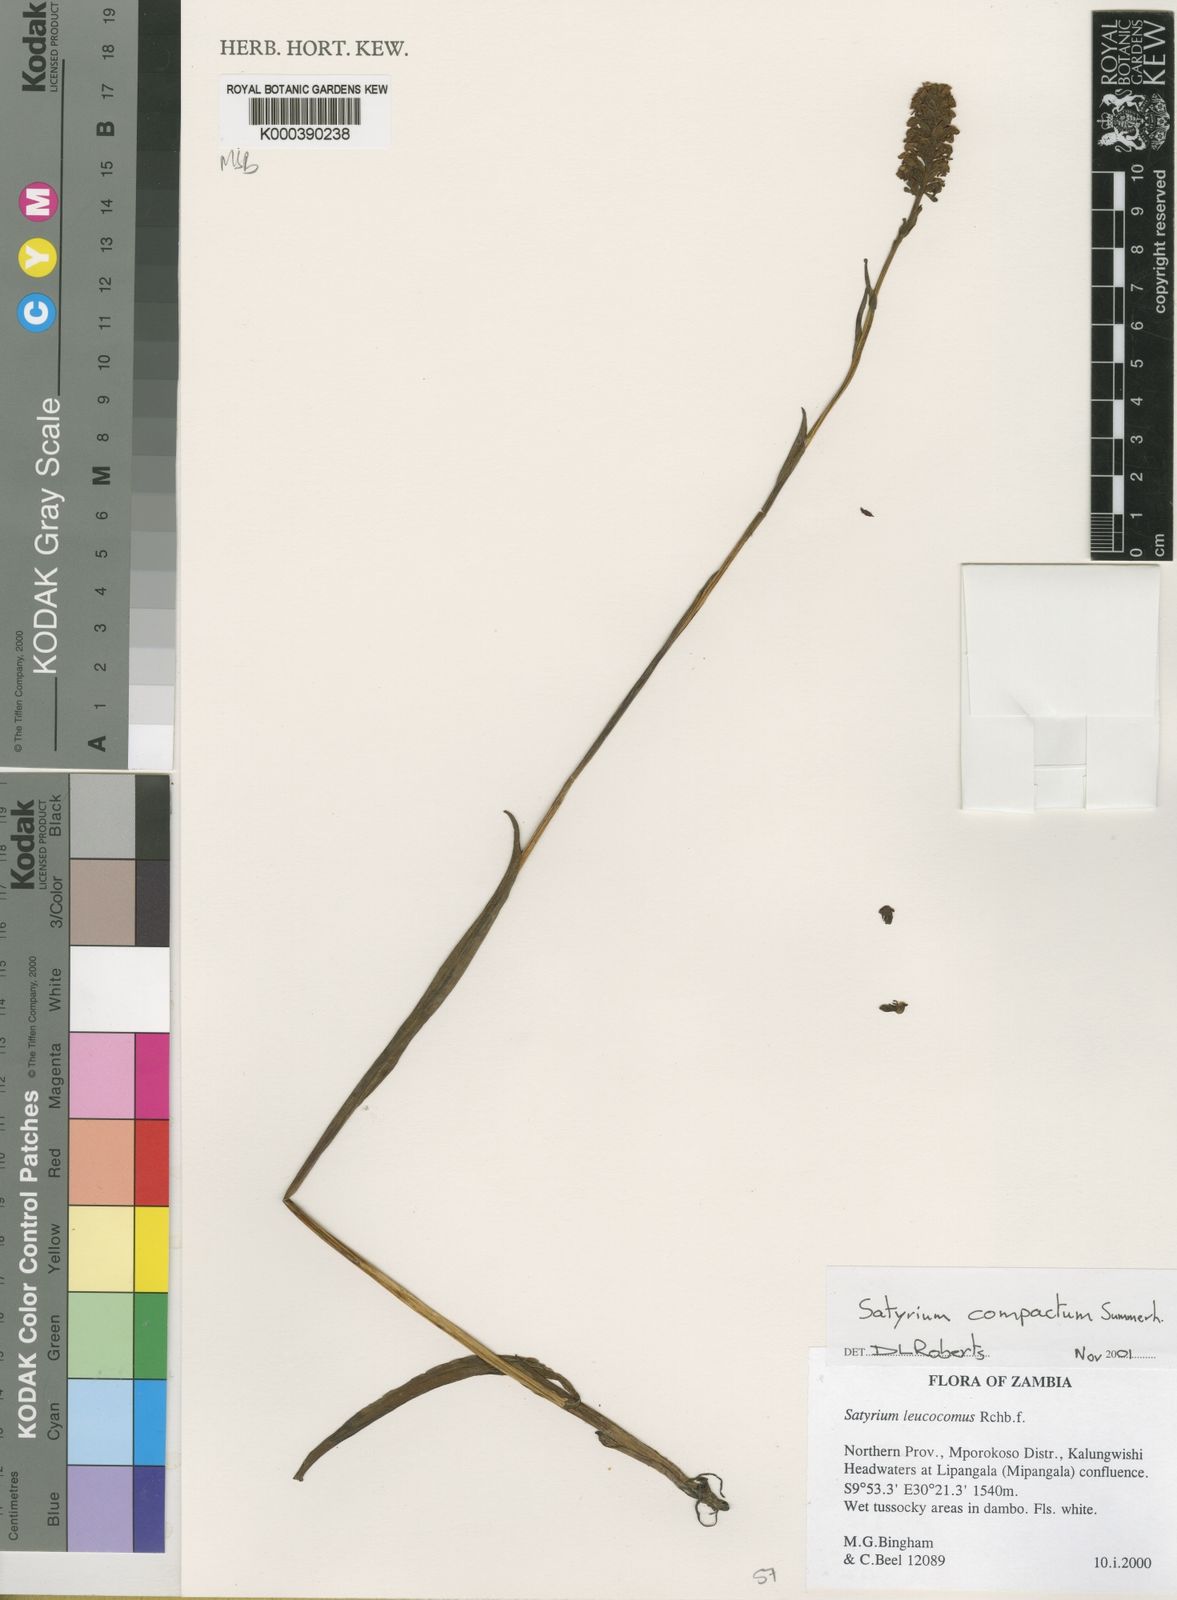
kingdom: Plantae
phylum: Tracheophyta
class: Liliopsida
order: Asparagales
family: Orchidaceae
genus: Satyrium
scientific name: Satyrium compactum
